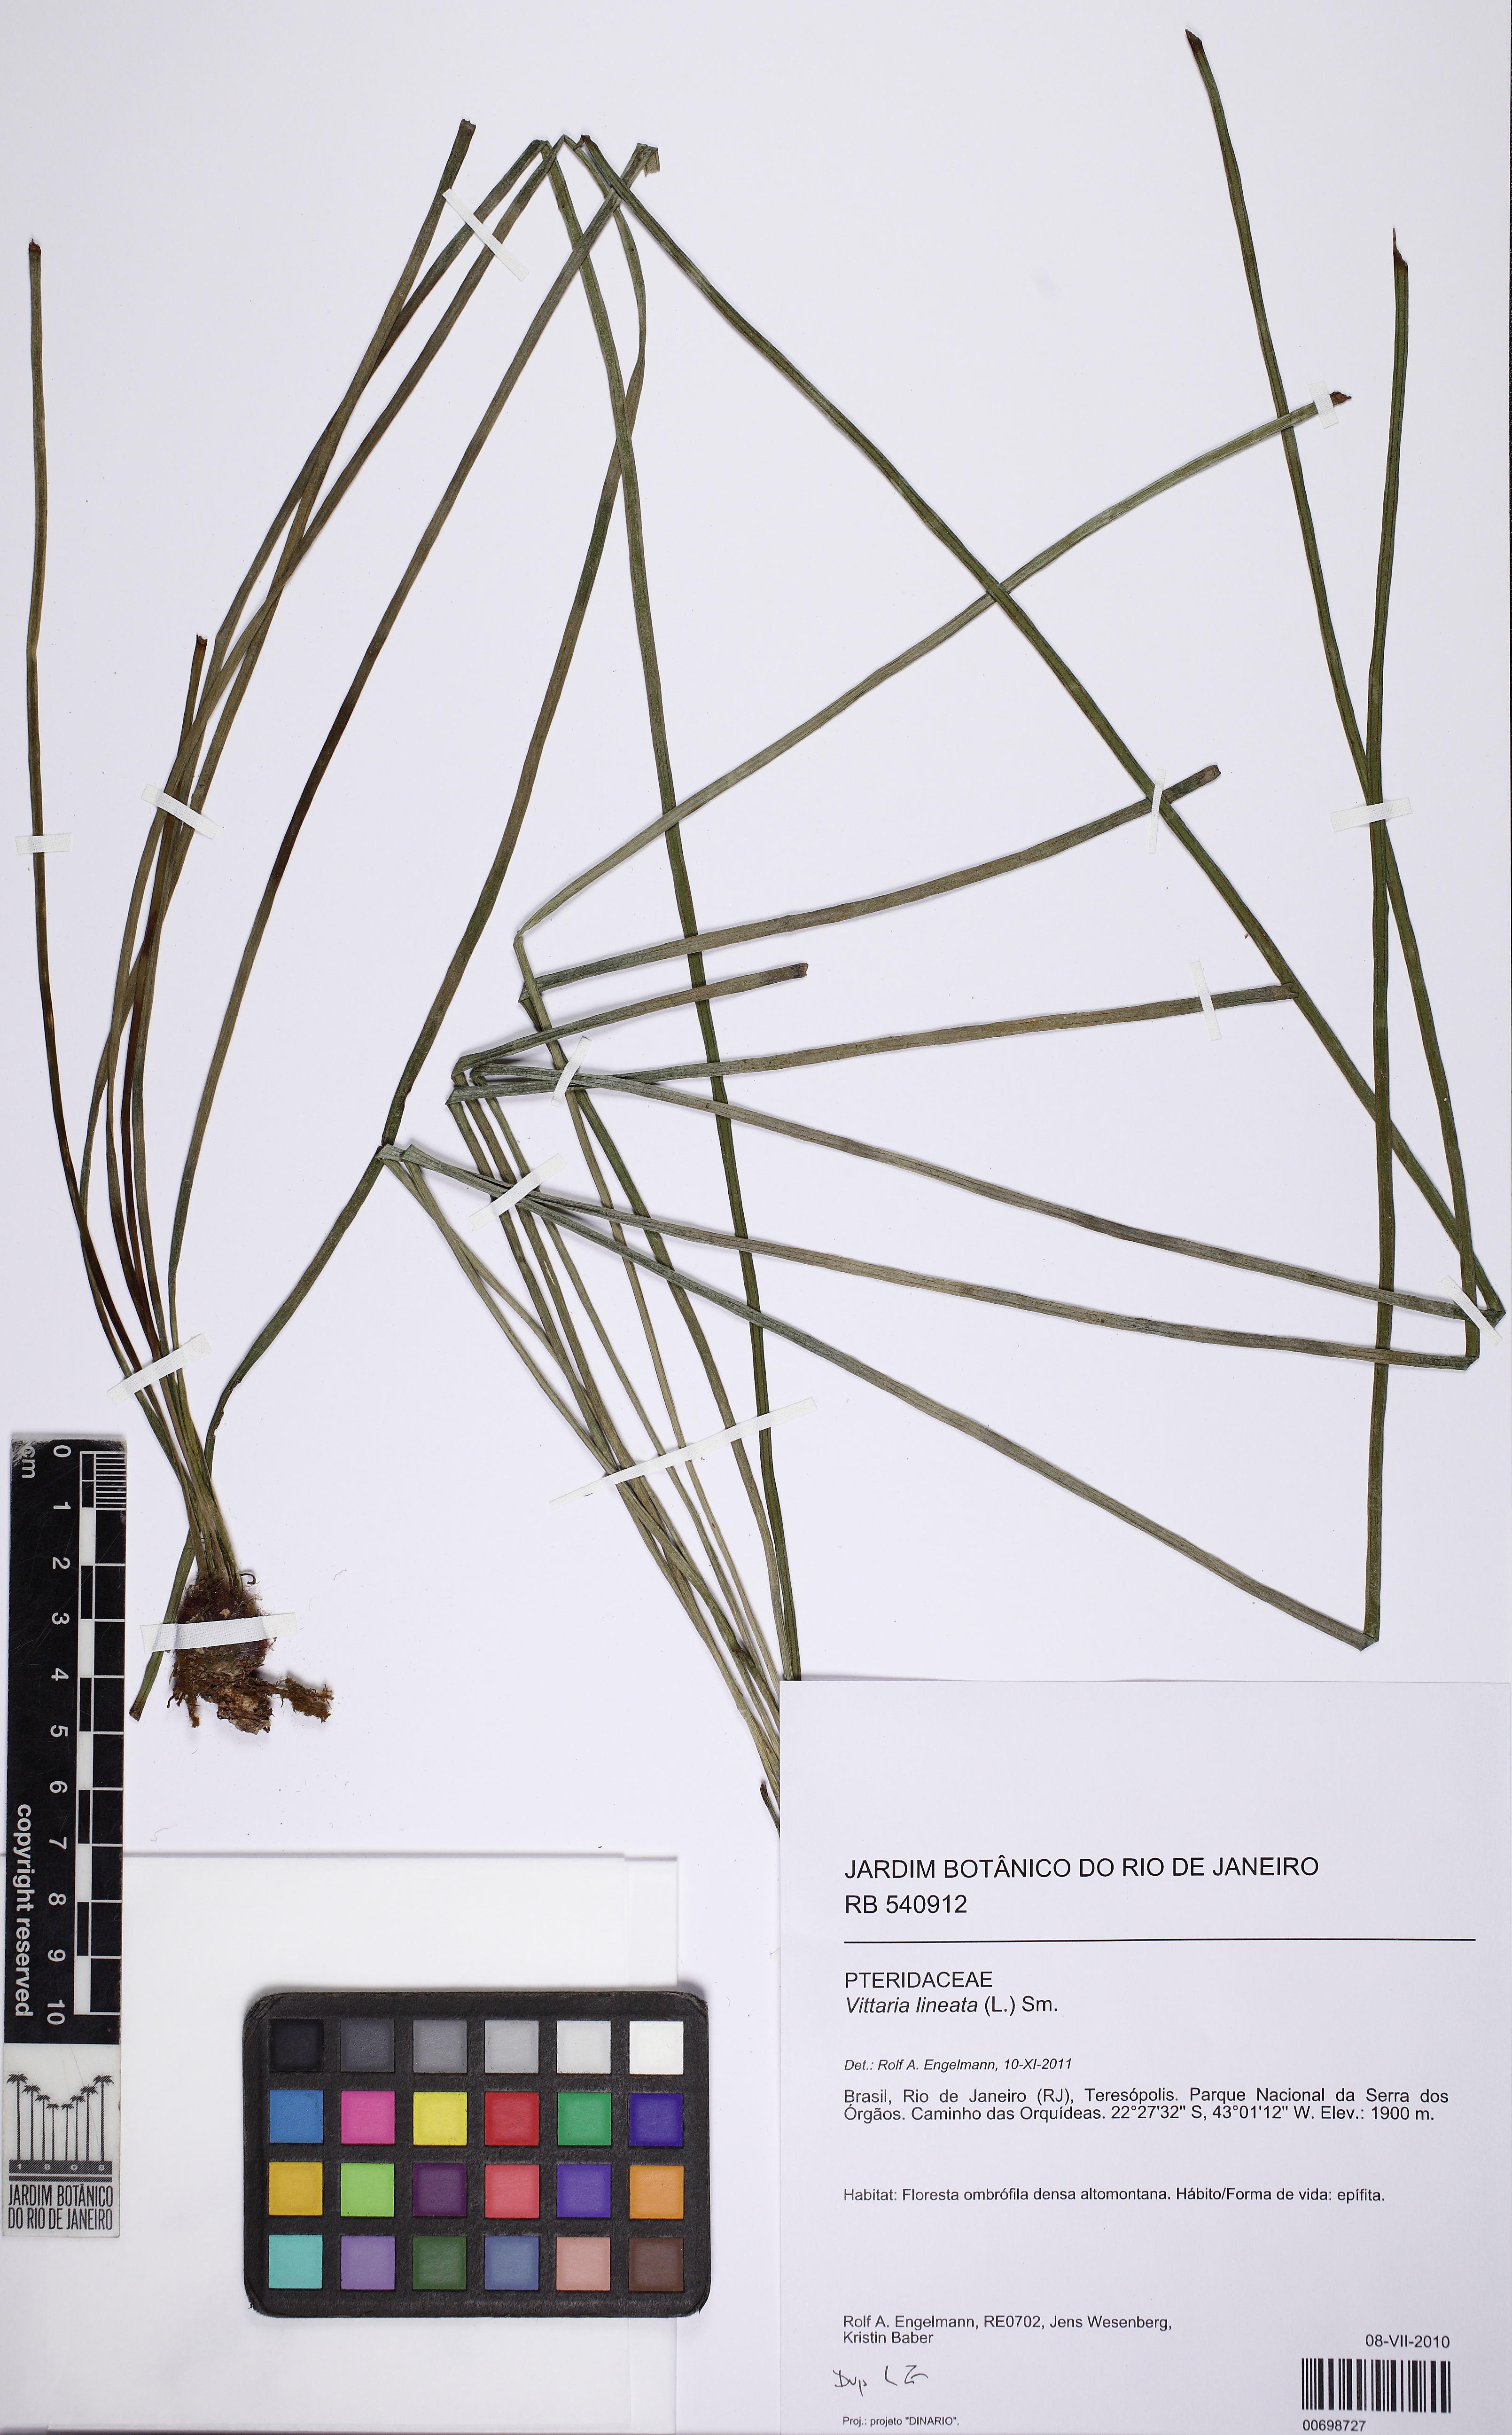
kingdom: Plantae
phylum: Tracheophyta
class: Polypodiopsida
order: Polypodiales
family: Pteridaceae
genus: Vittaria
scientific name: Vittaria lineata
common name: Shoestring fern
